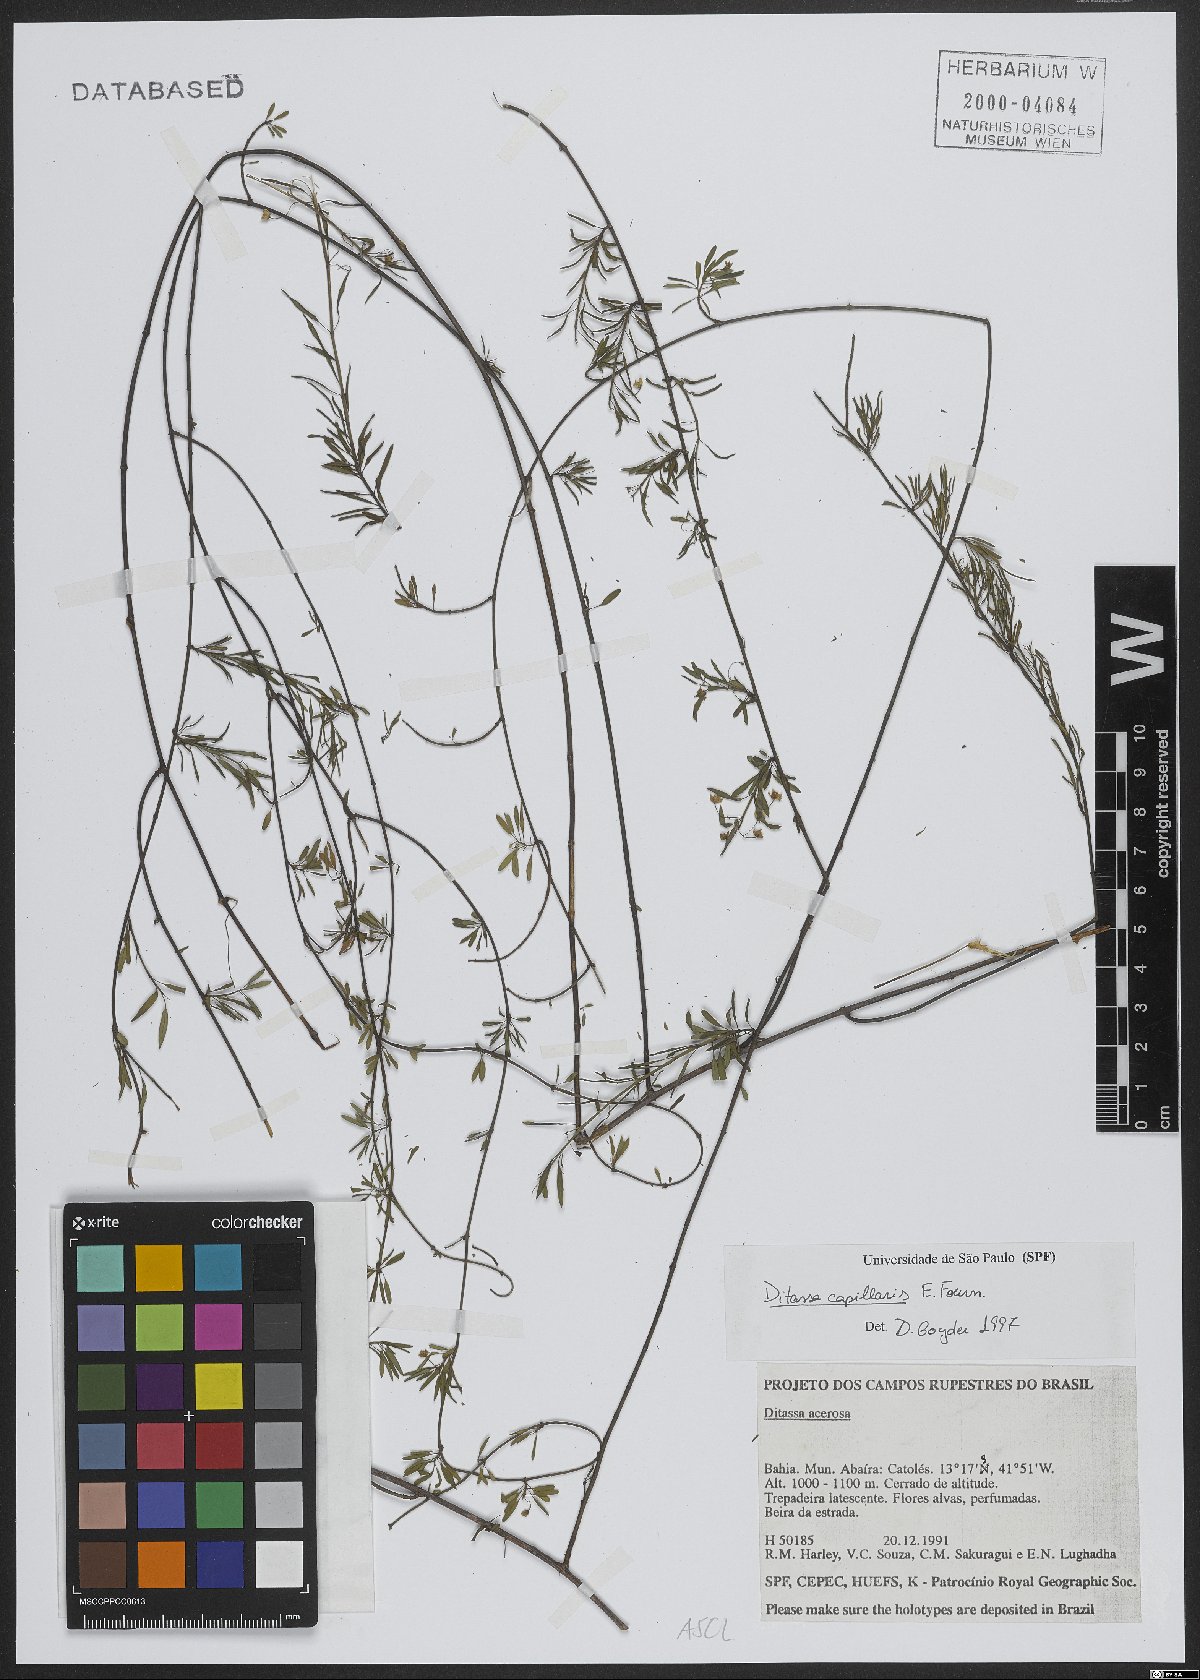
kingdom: Plantae
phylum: Tracheophyta
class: Magnoliopsida
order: Gentianales
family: Apocynaceae
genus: Ditassa
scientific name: Ditassa capillaris
